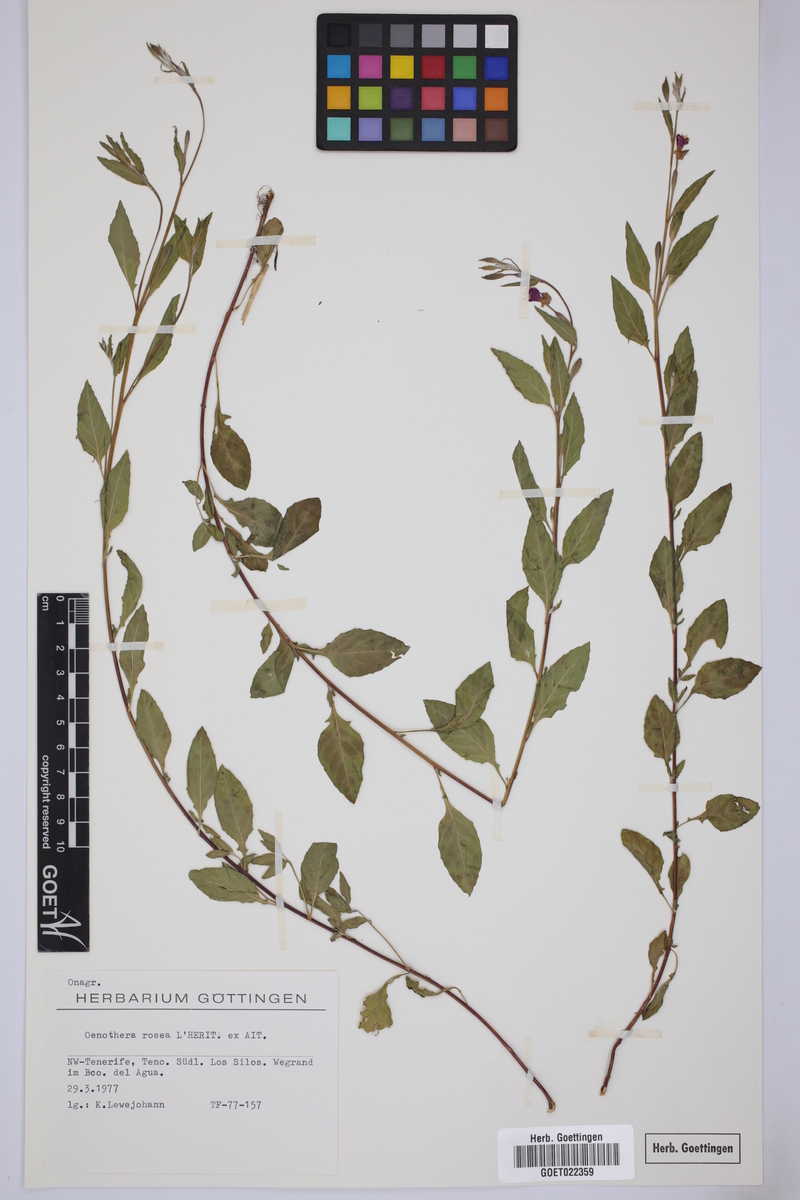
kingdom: Plantae
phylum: Tracheophyta
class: Magnoliopsida
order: Myrtales
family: Onagraceae
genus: Oenothera
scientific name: Oenothera rosea
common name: Rosy evening-primrose
